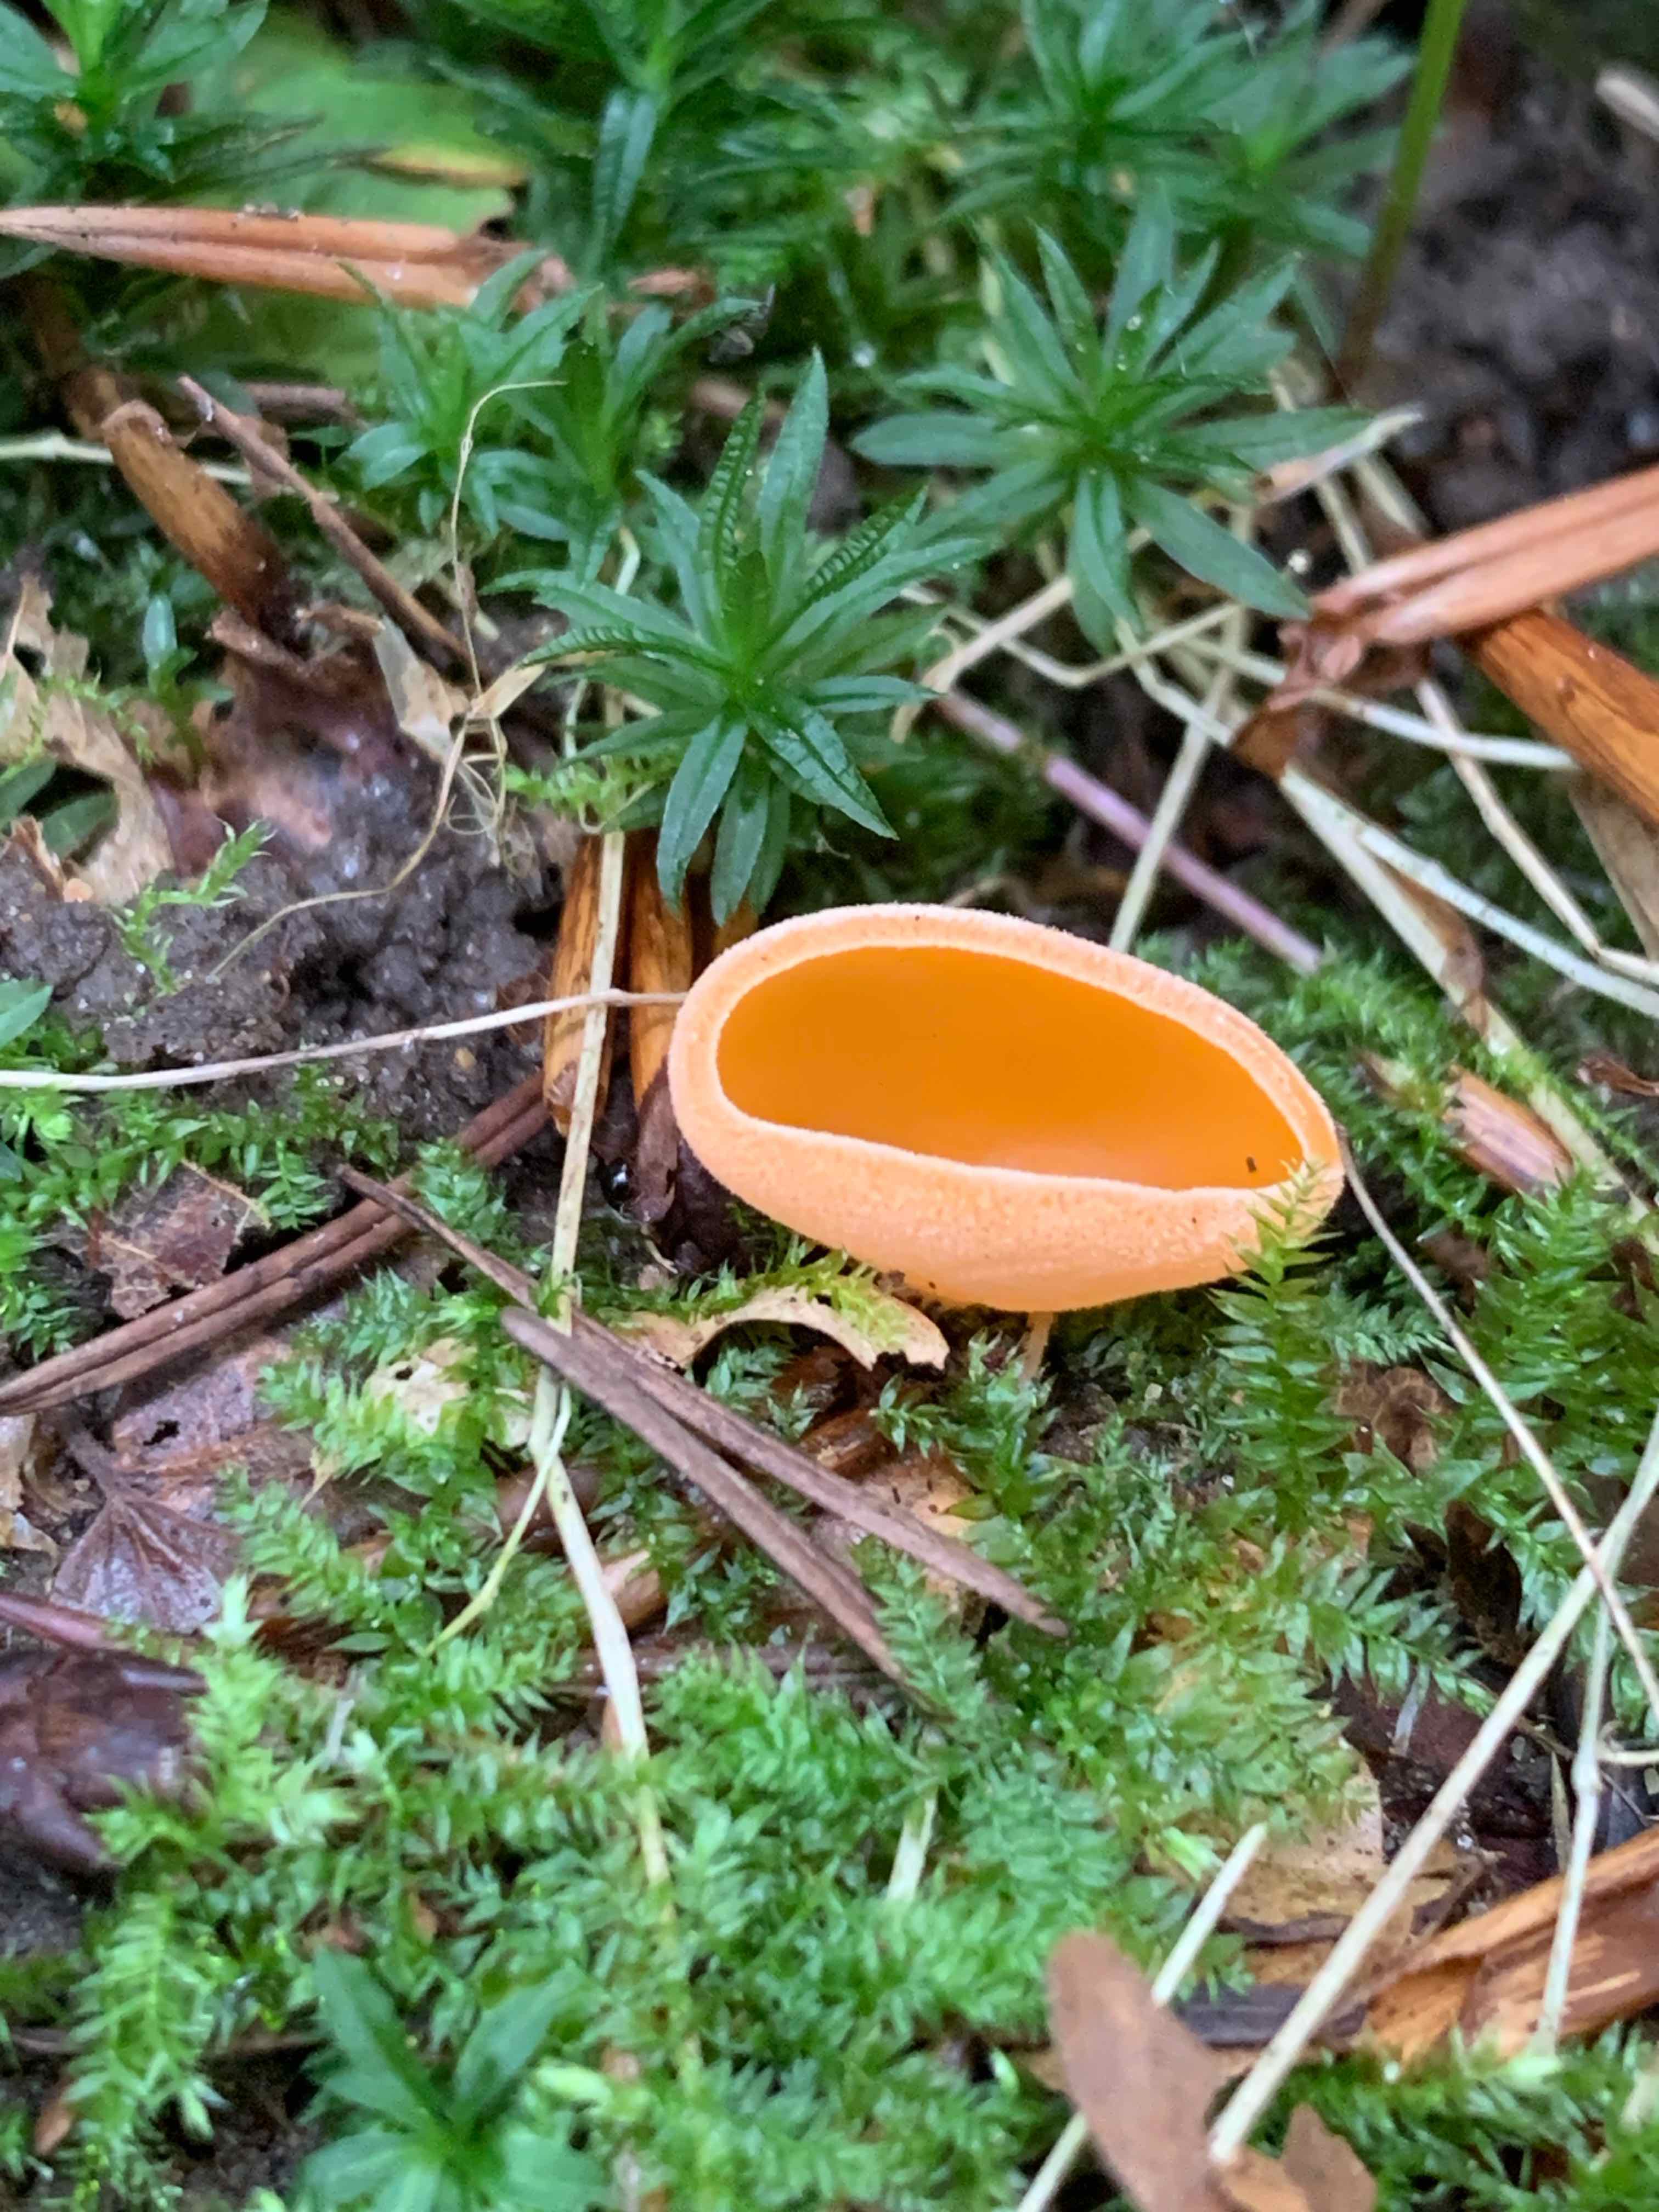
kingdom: Fungi
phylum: Ascomycota
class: Pezizomycetes
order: Pezizales
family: Pyronemataceae
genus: Aleuria
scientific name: Aleuria aurantia
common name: almindelig orangebæger
